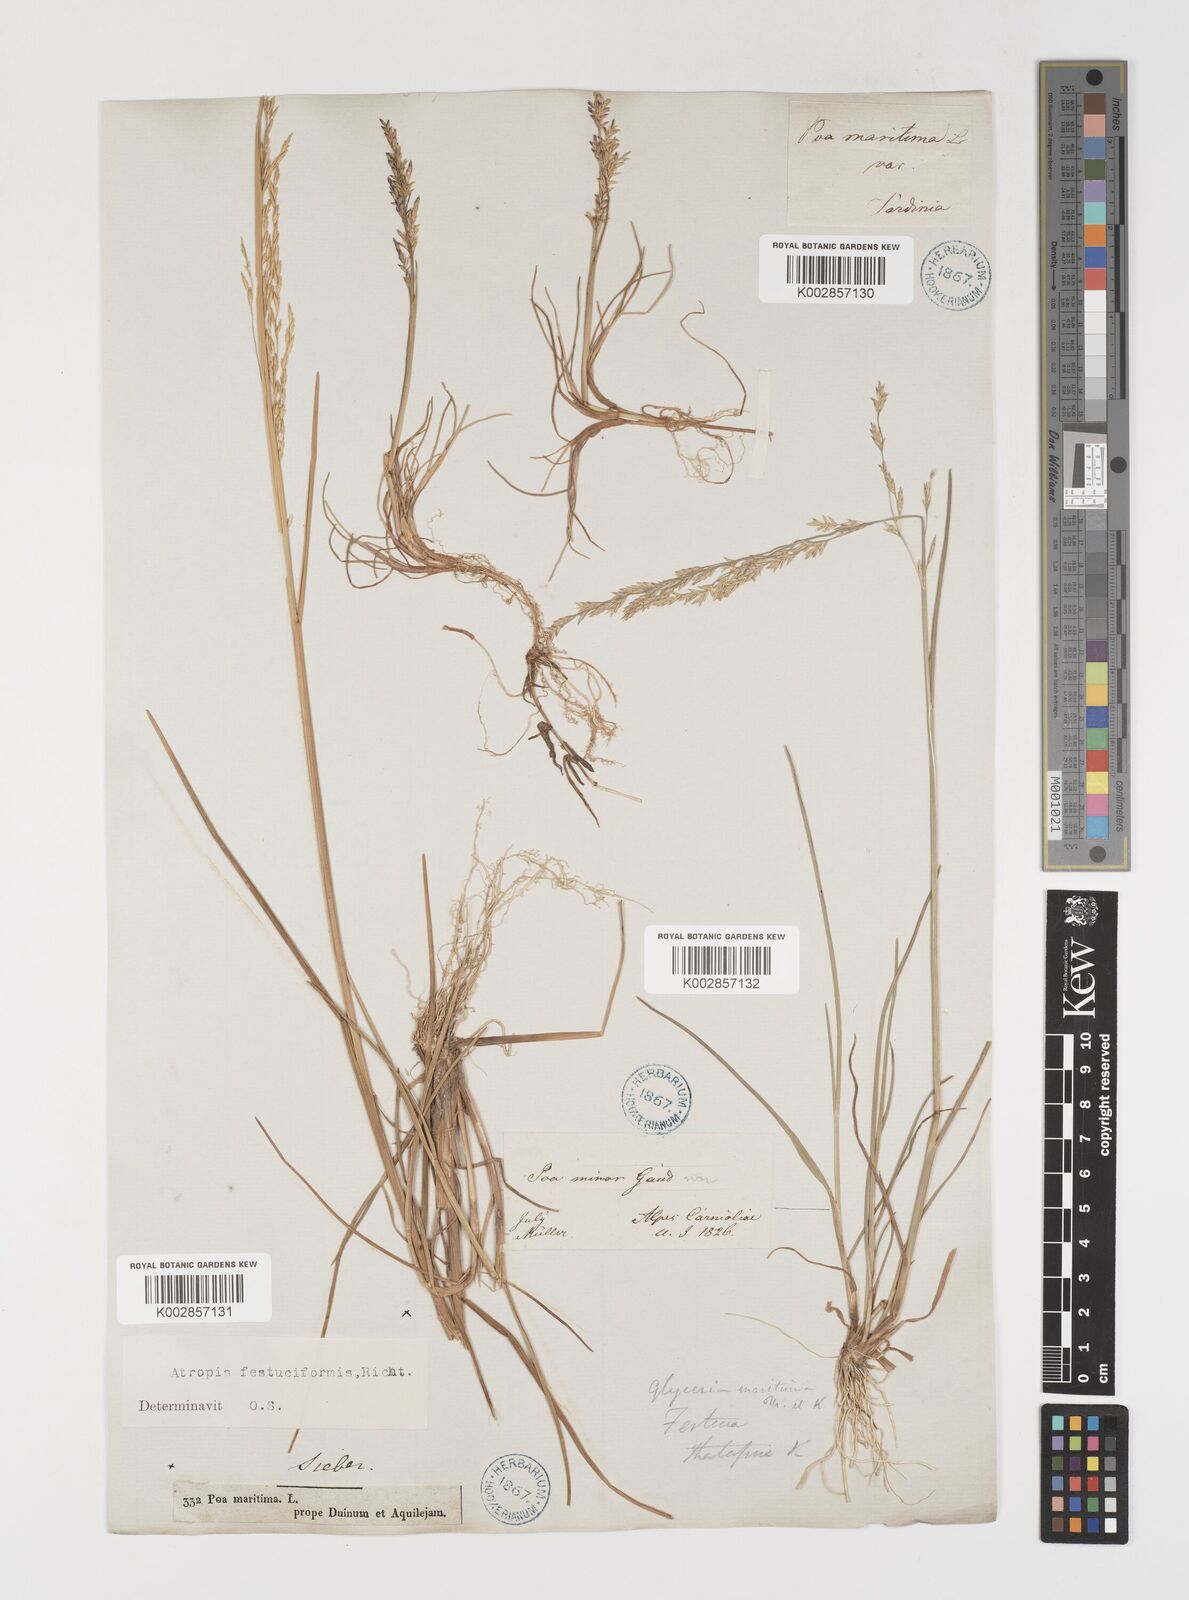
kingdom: Plantae
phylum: Tracheophyta
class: Liliopsida
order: Poales
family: Poaceae
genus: Puccinellia
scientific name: Puccinellia festuciformis
